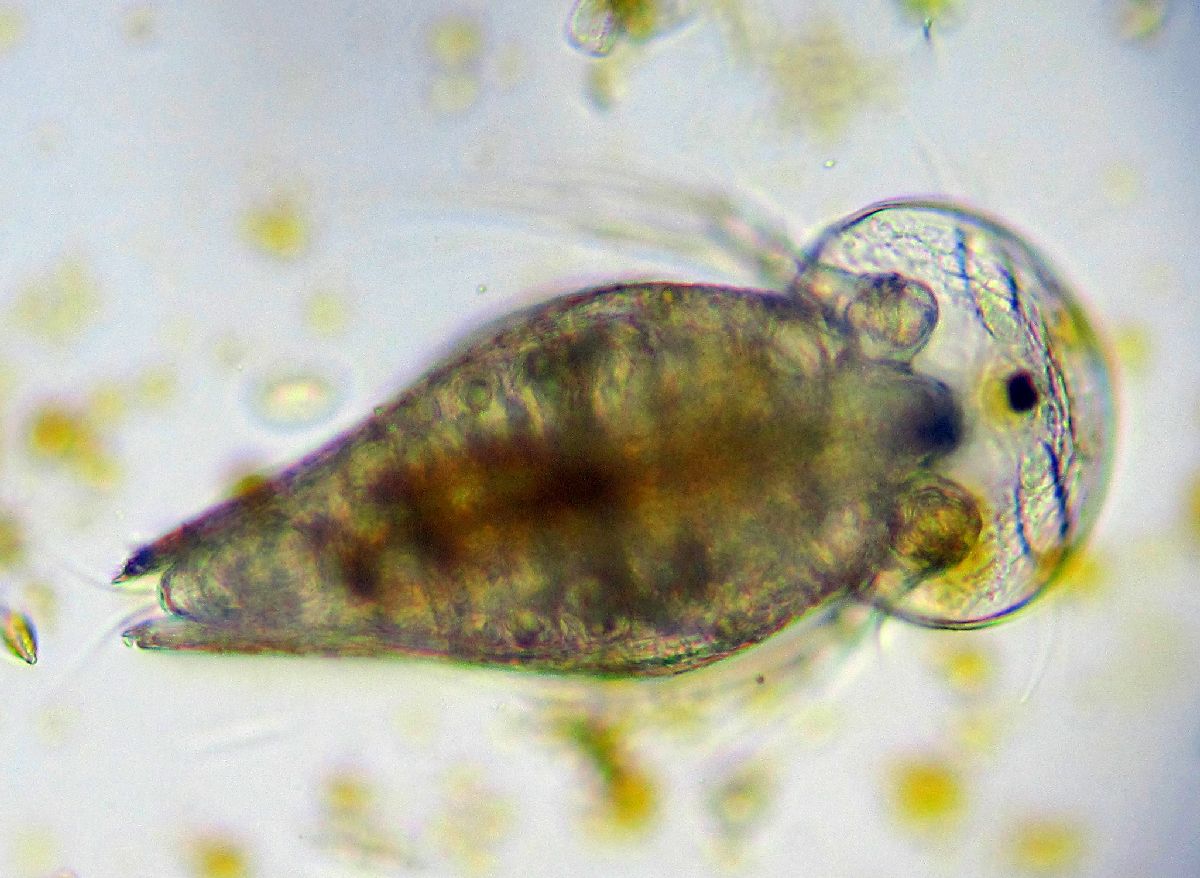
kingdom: Animalia
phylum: Arthropoda
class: Branchiopoda
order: Diplostraca
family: Chydoridae
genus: Graptoleberis
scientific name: Graptoleberis testudinaria
